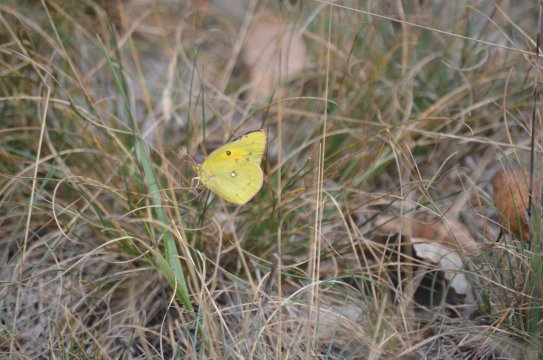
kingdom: Animalia
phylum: Arthropoda
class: Insecta
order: Lepidoptera
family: Pieridae
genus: Colias
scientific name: Colias eurytheme
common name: Orange Sulphur
